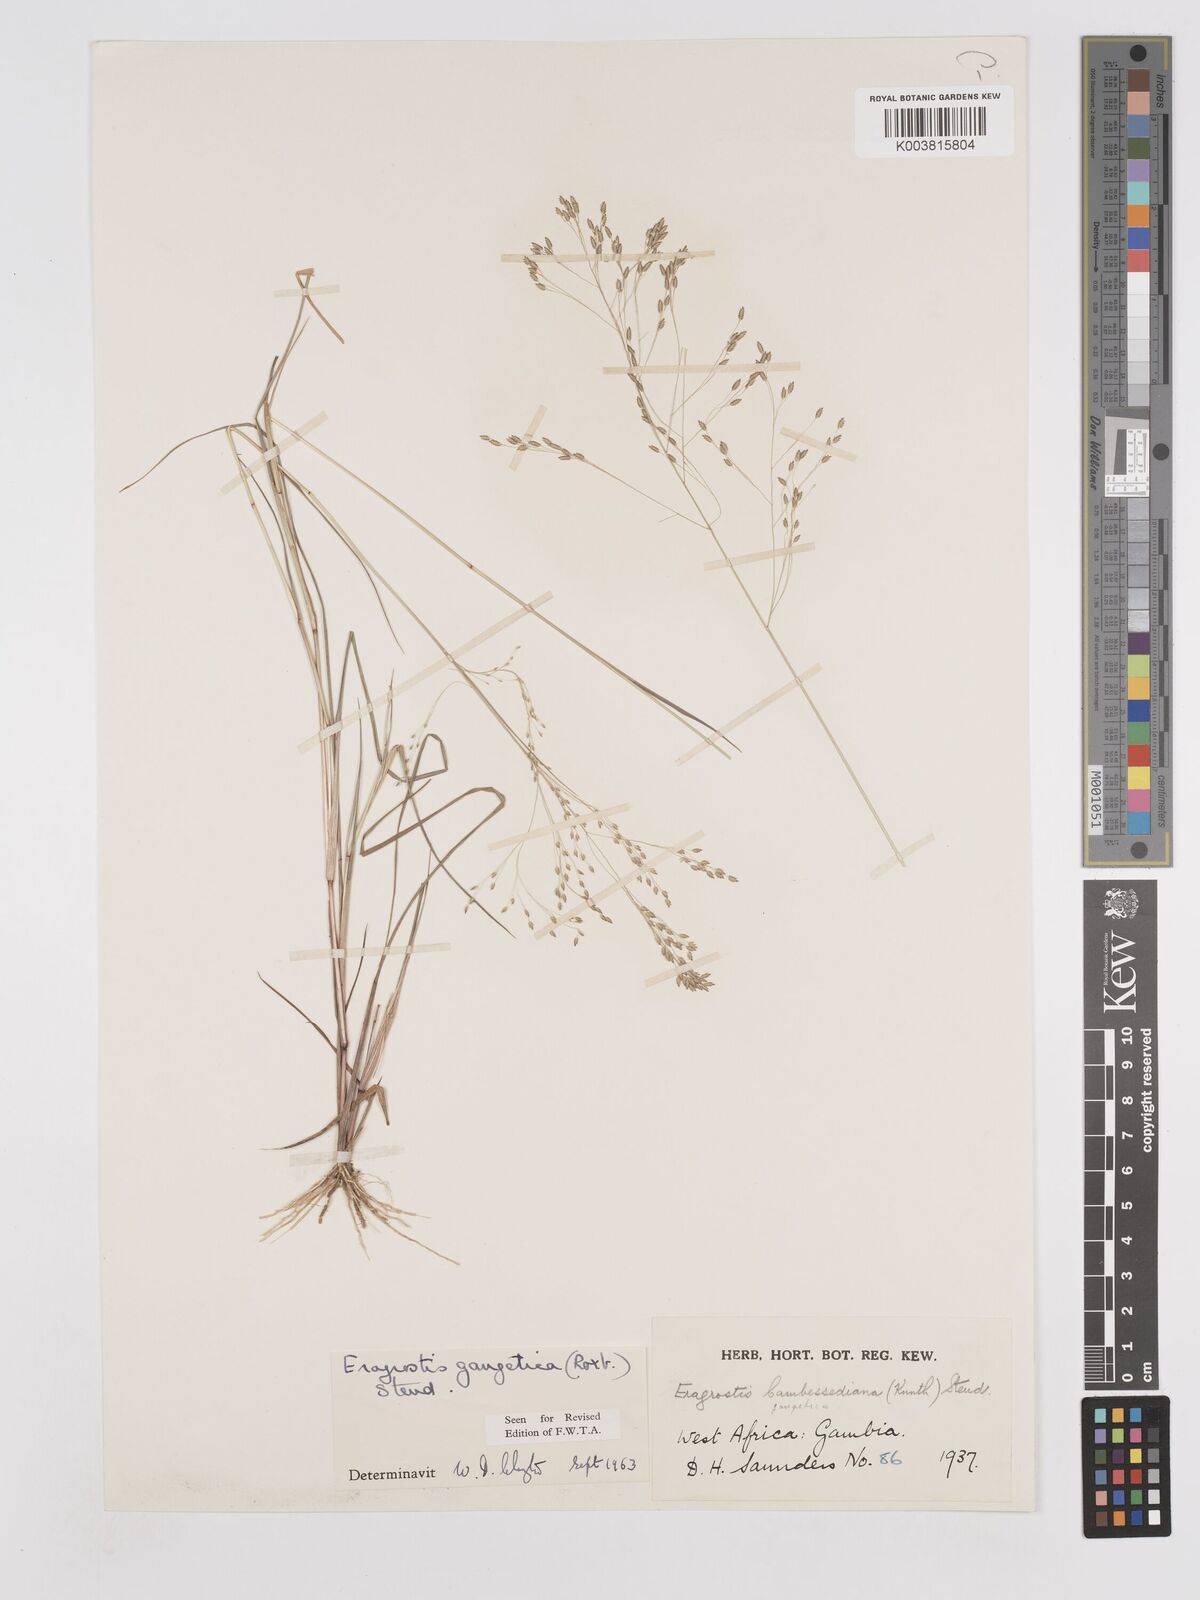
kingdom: Plantae
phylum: Tracheophyta
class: Liliopsida
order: Poales
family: Poaceae
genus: Eragrostis
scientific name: Eragrostis gangetica
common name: Slimflower lovegrass
